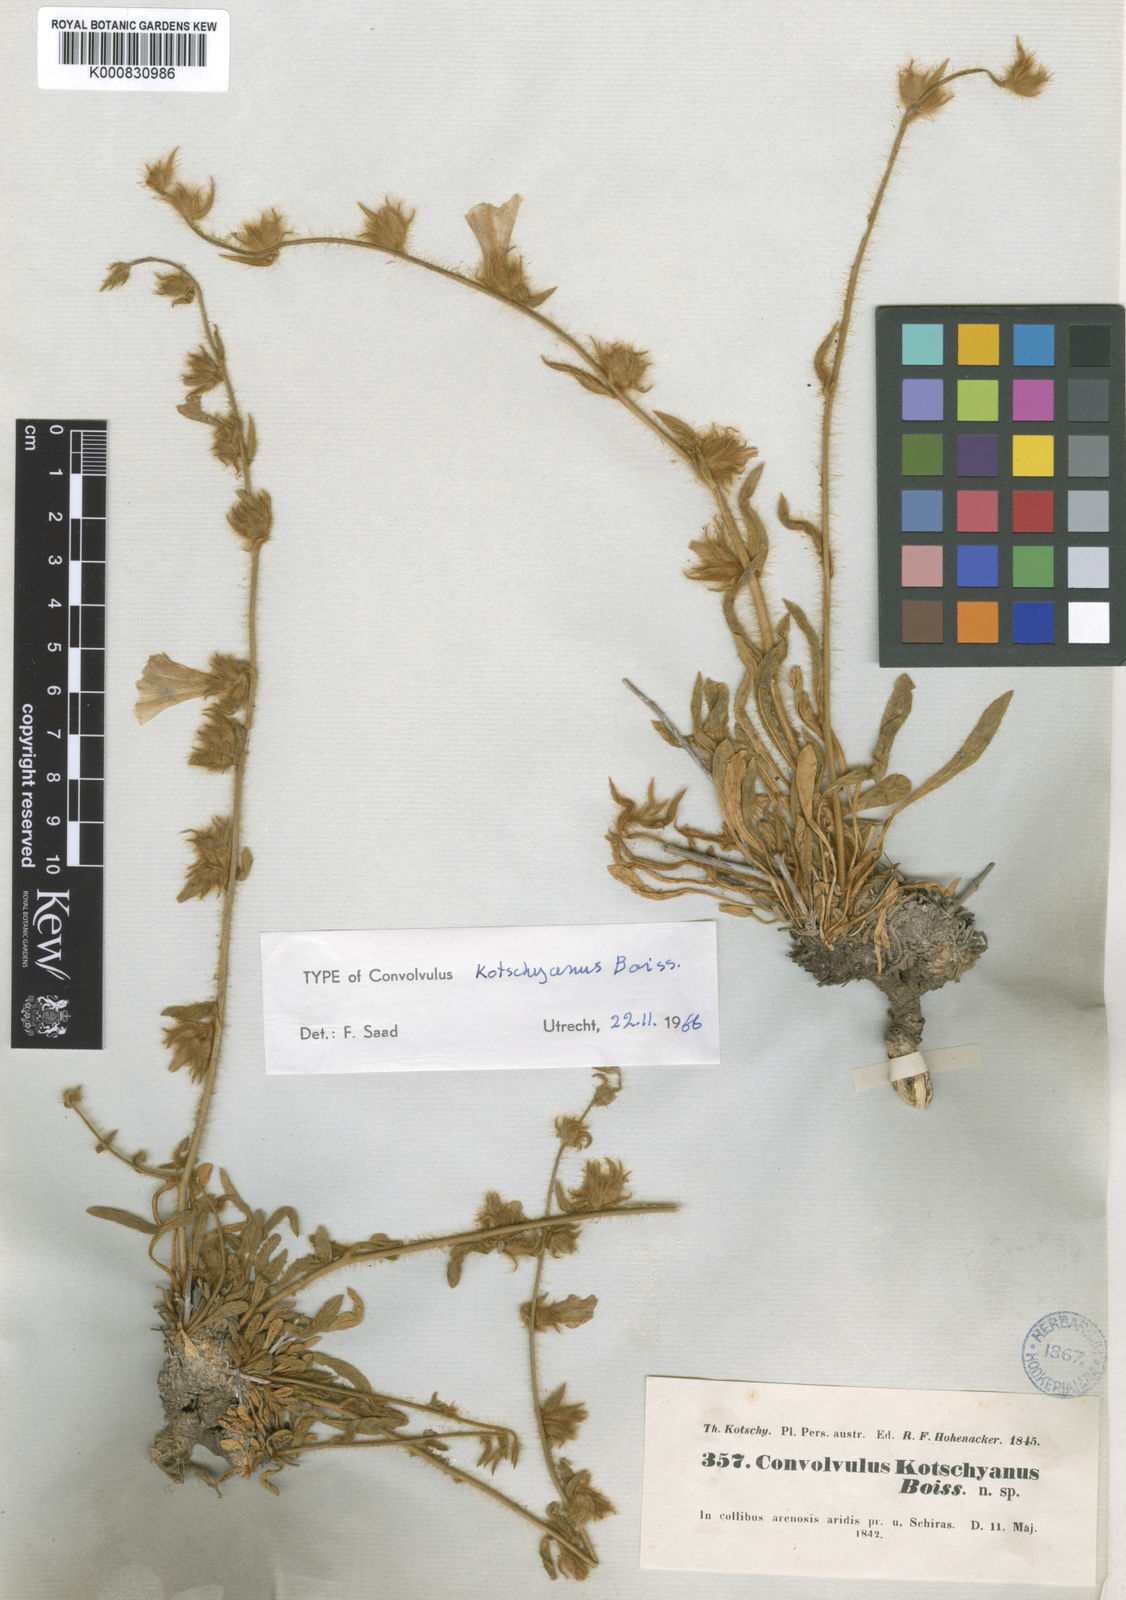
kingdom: Plantae
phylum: Tracheophyta
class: Magnoliopsida
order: Solanales
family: Convolvulaceae
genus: Convolvulus
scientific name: Convolvulus kotschyanus
